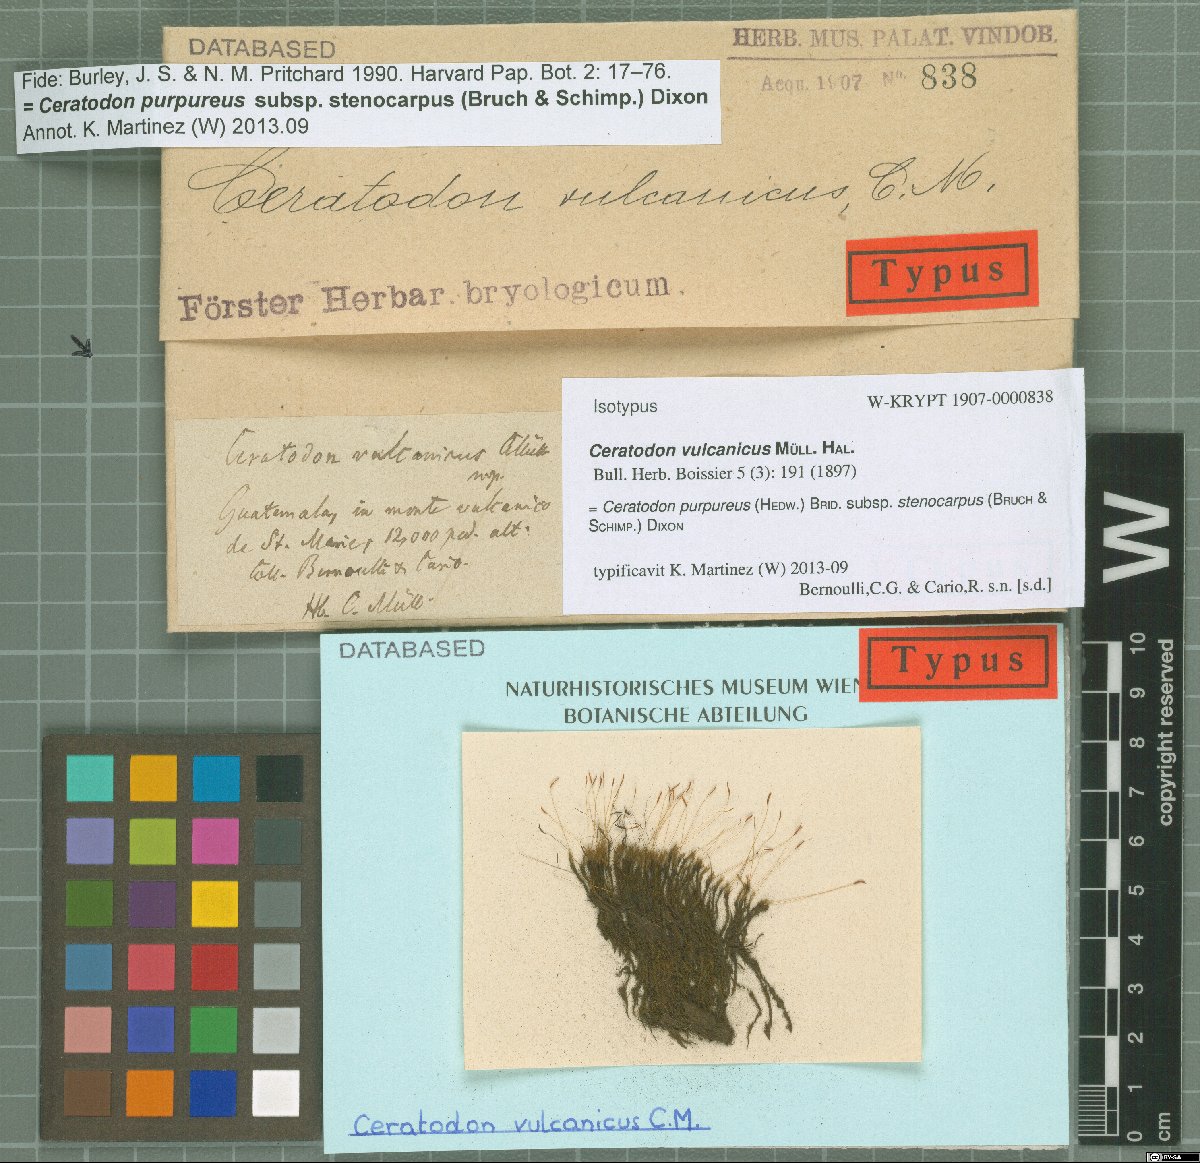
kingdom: Plantae
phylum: Bryophyta
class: Bryopsida
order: Dicranales
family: Ditrichaceae
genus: Ceratodon
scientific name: Ceratodon purpureus
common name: Redshank
